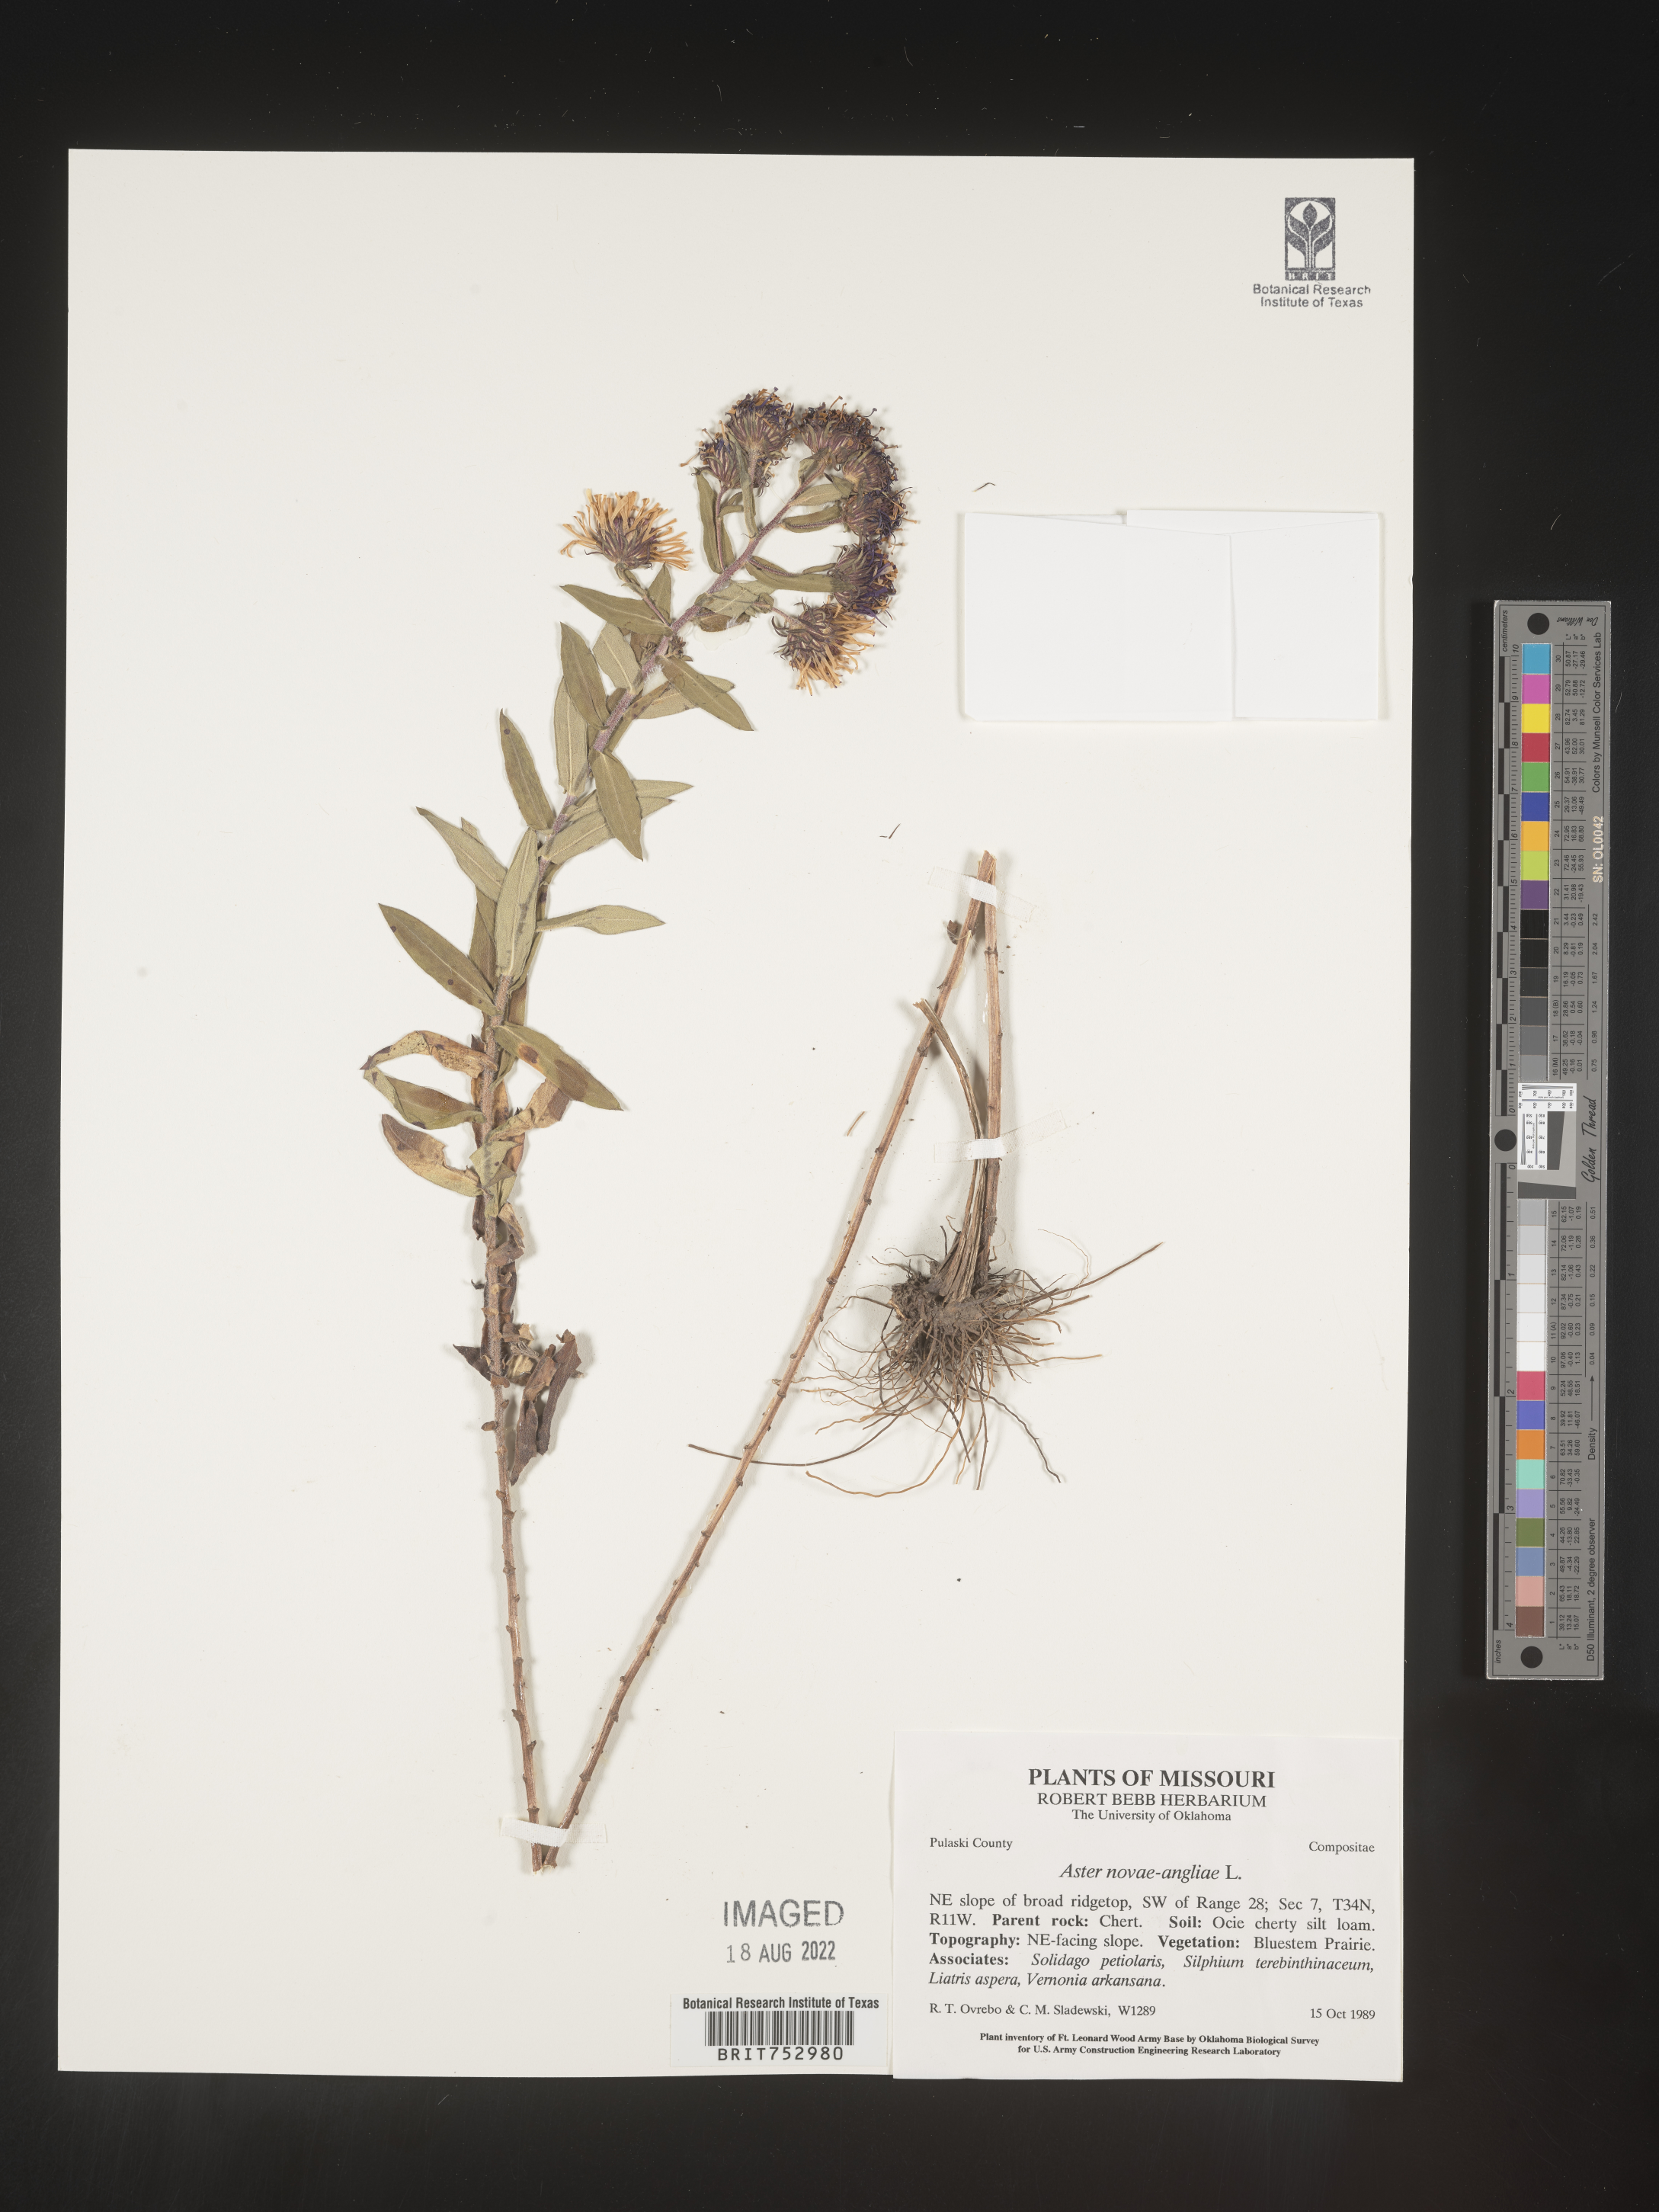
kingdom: Plantae
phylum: Tracheophyta
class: Magnoliopsida
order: Asterales
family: Asteraceae
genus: Symphyotrichum
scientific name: Symphyotrichum novae-angliae
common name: Michaelmas daisy
